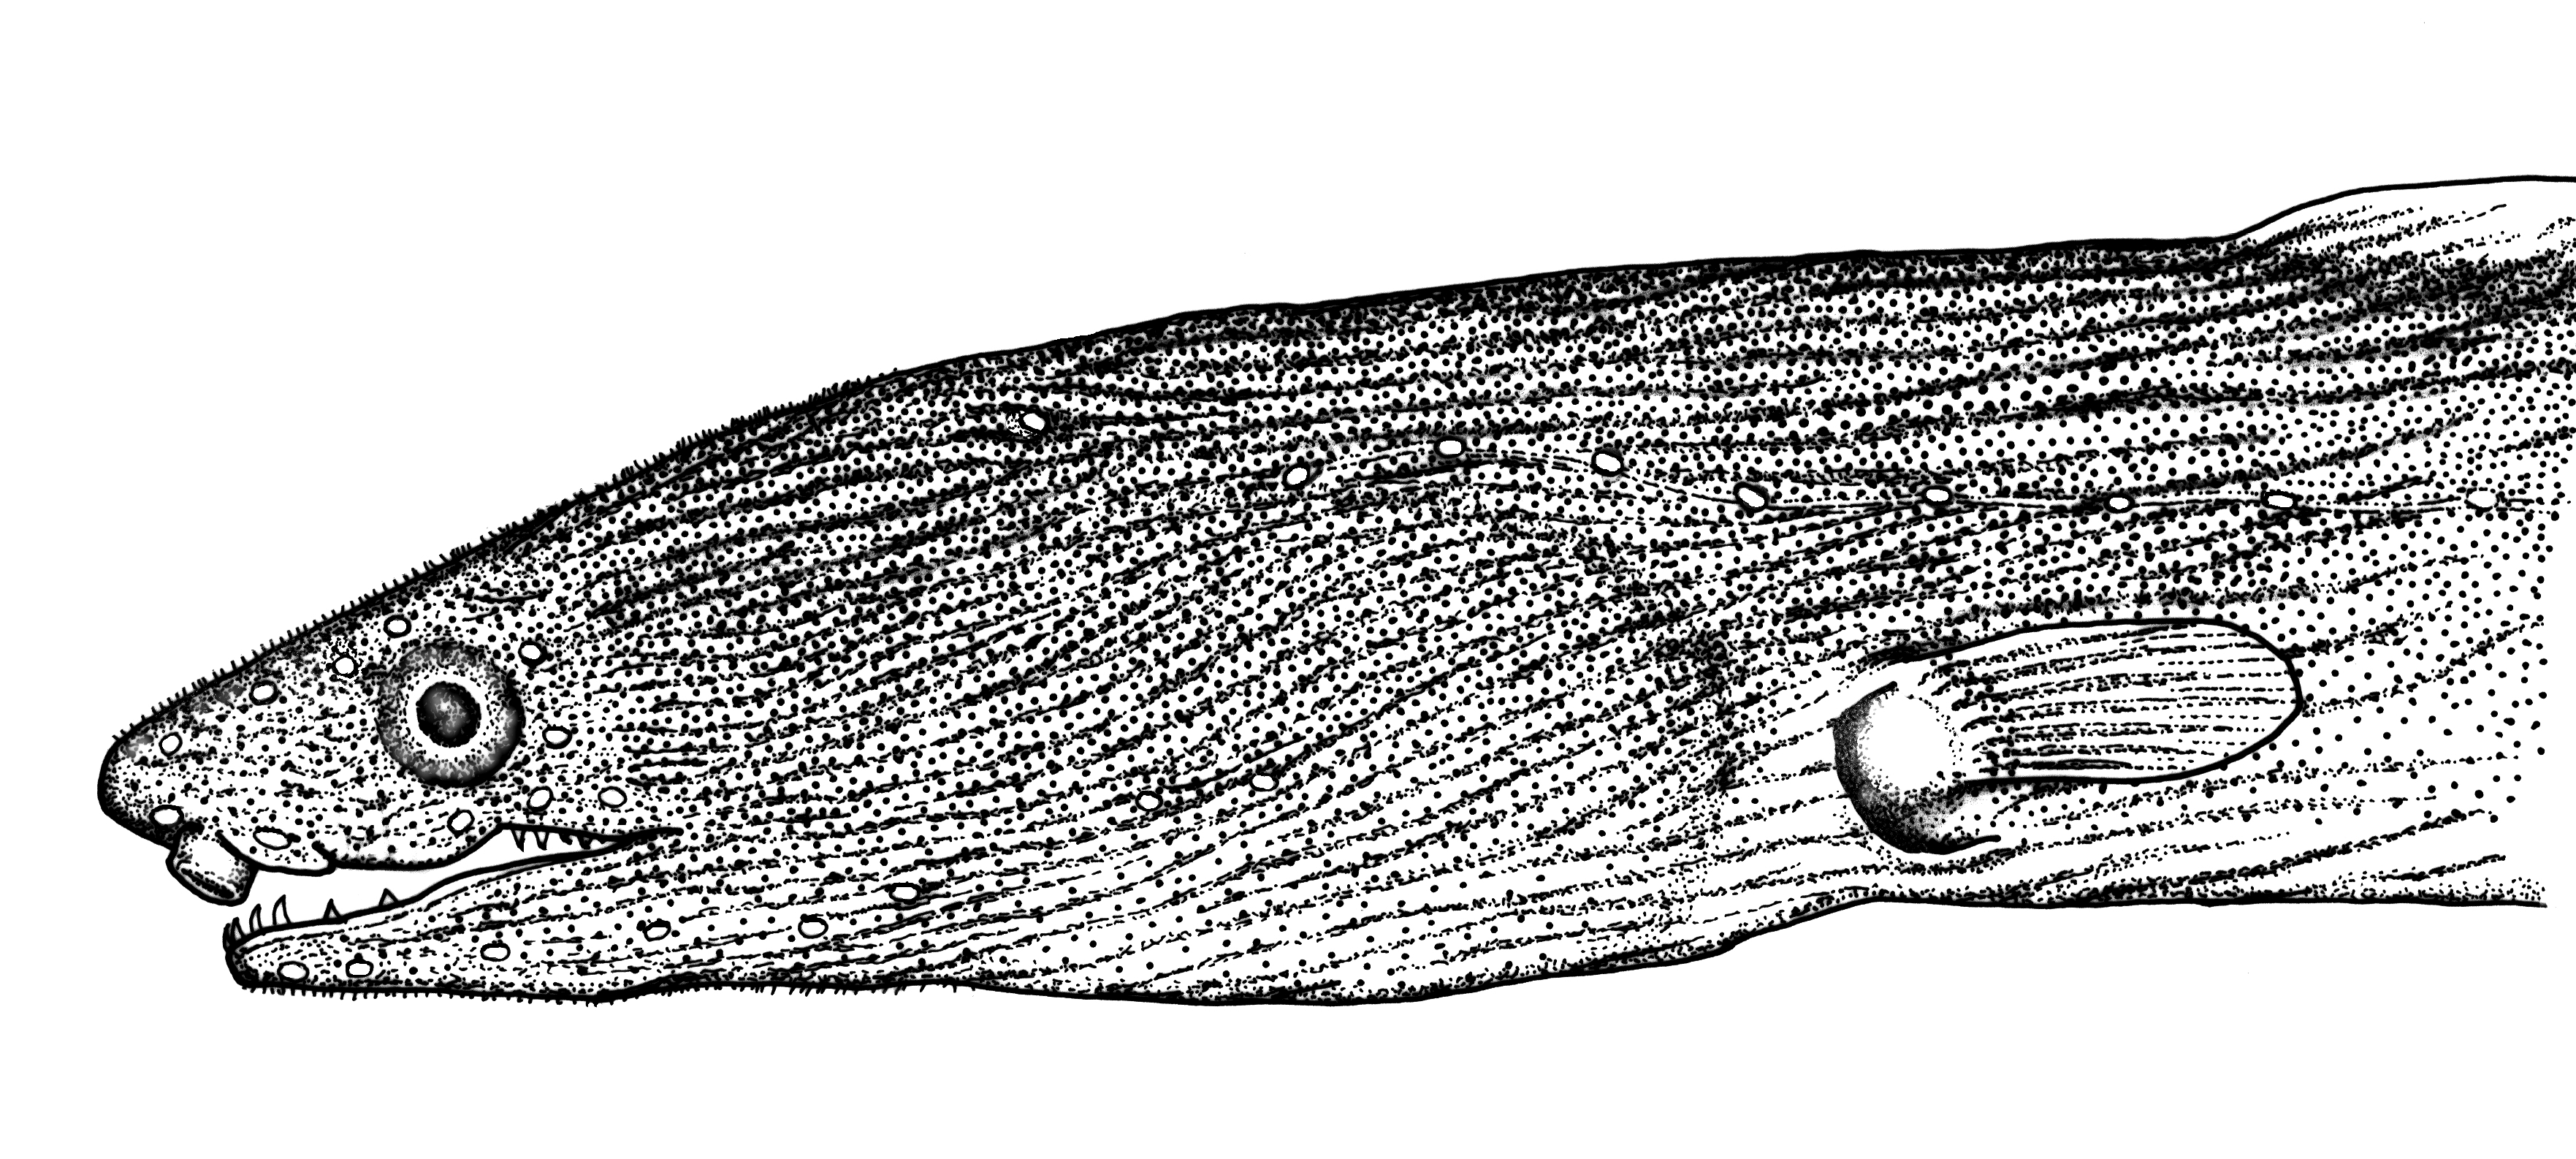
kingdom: Animalia
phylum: Chordata
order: Anguilliformes
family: Ophichthidae
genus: Ophichthus
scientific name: Ophichthus marginatus
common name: Shorthead snake-eel
